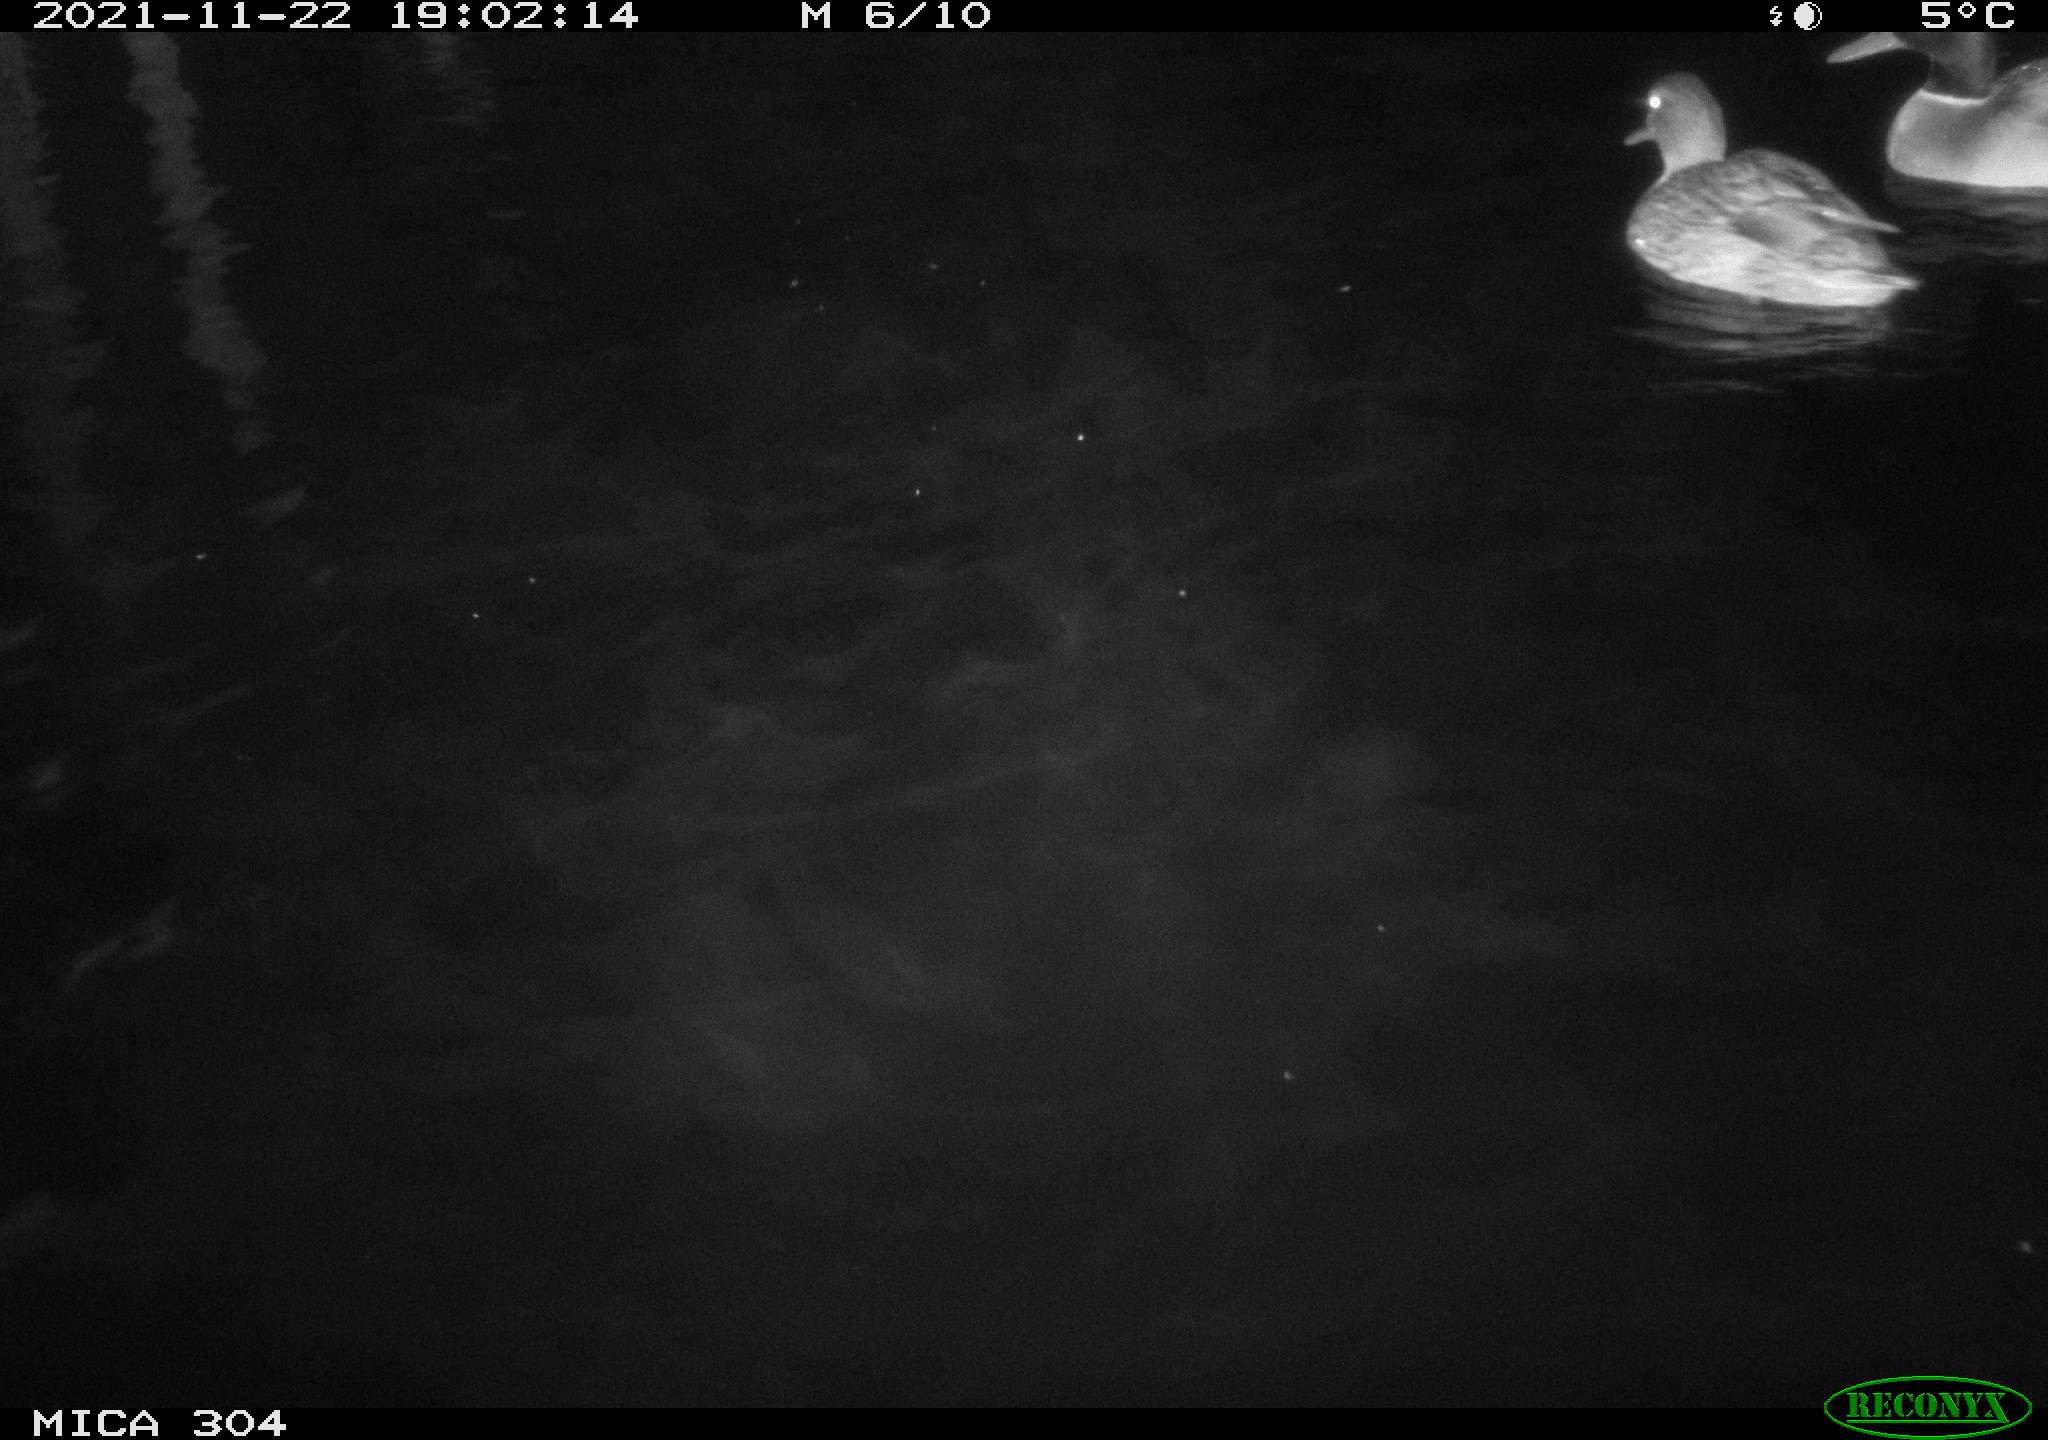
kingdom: Animalia
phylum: Chordata
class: Aves
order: Anseriformes
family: Anatidae
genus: Anas
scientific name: Anas platyrhynchos
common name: Mallard
